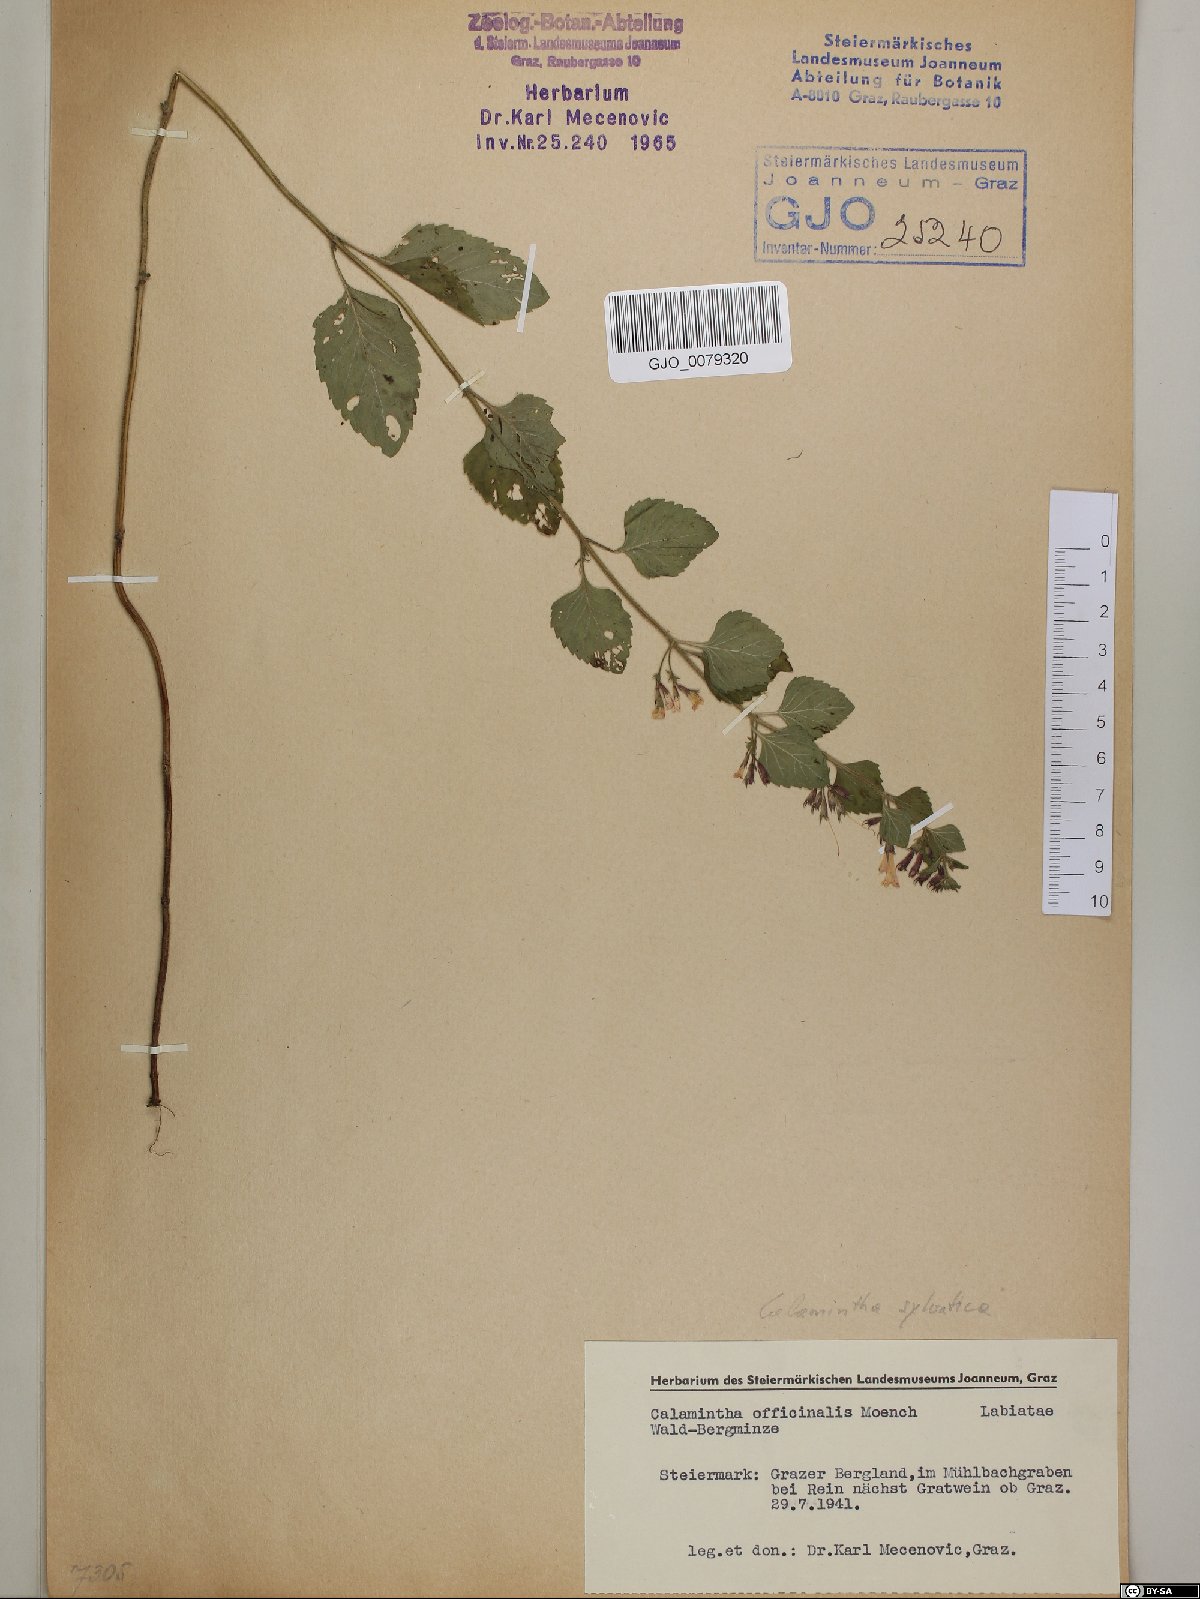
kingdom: Plantae
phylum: Tracheophyta
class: Magnoliopsida
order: Lamiales
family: Lamiaceae
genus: Clinopodium
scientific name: Clinopodium nepeta
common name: Lesser calamint
